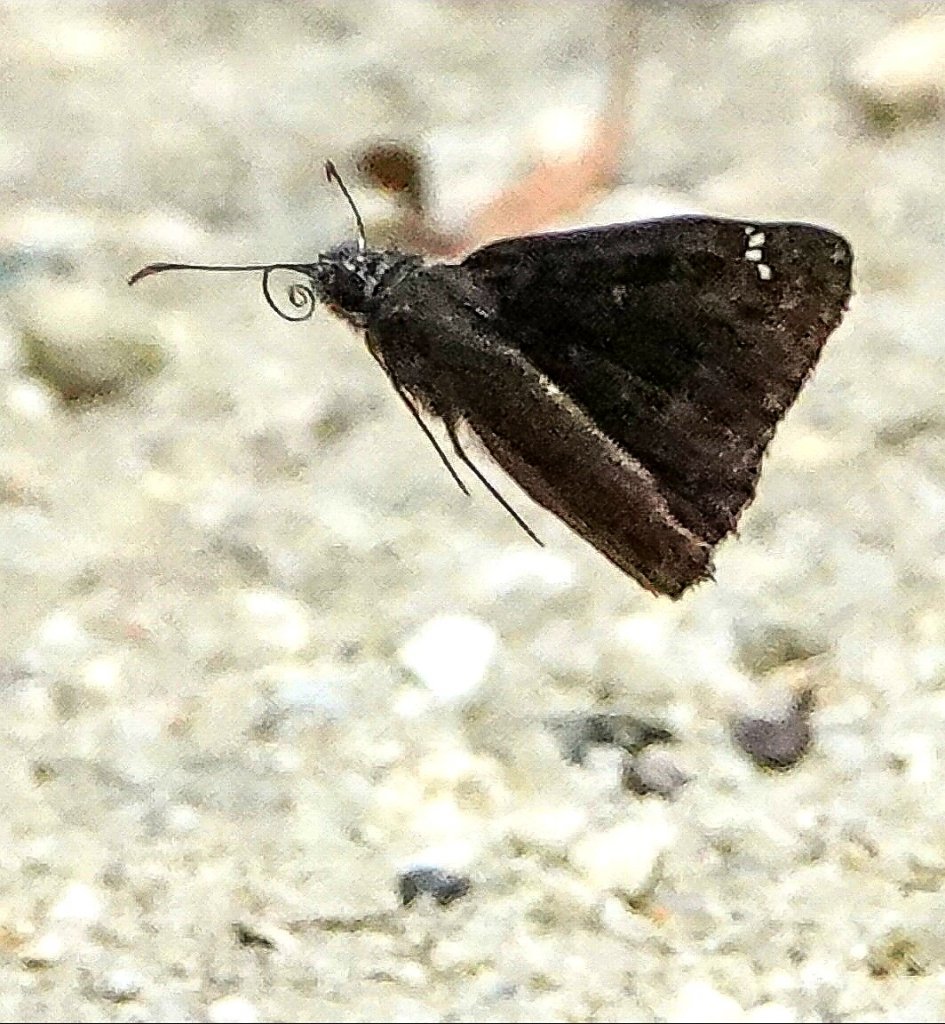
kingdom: Animalia
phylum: Arthropoda
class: Insecta
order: Lepidoptera
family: Hesperiidae
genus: Gesta
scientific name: Gesta
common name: Horace's Duskywing
